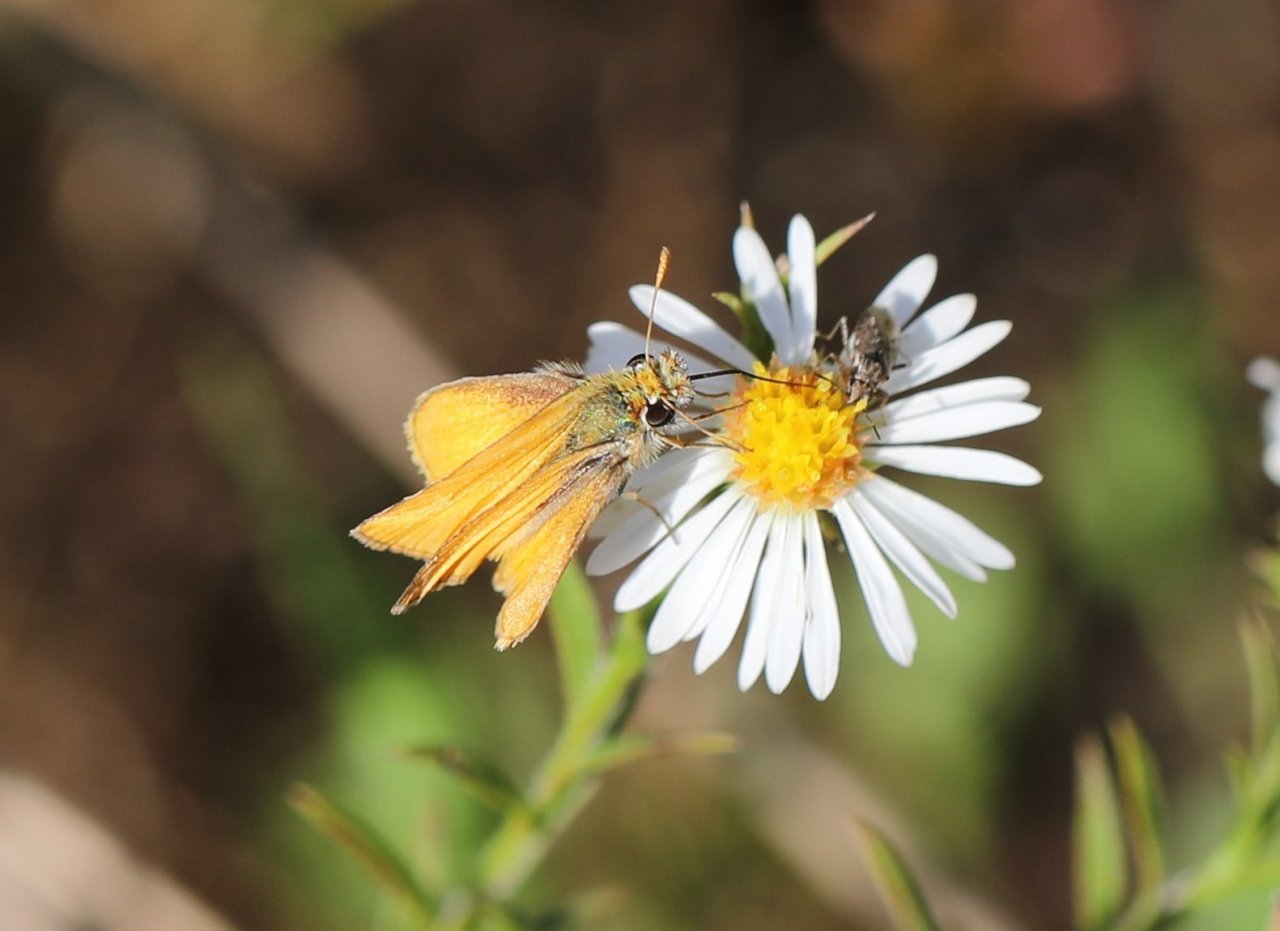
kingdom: Animalia
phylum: Arthropoda
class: Insecta
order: Lepidoptera
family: Hesperiidae
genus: Copaeodes
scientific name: Copaeodes minima
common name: Southern Skipperling
